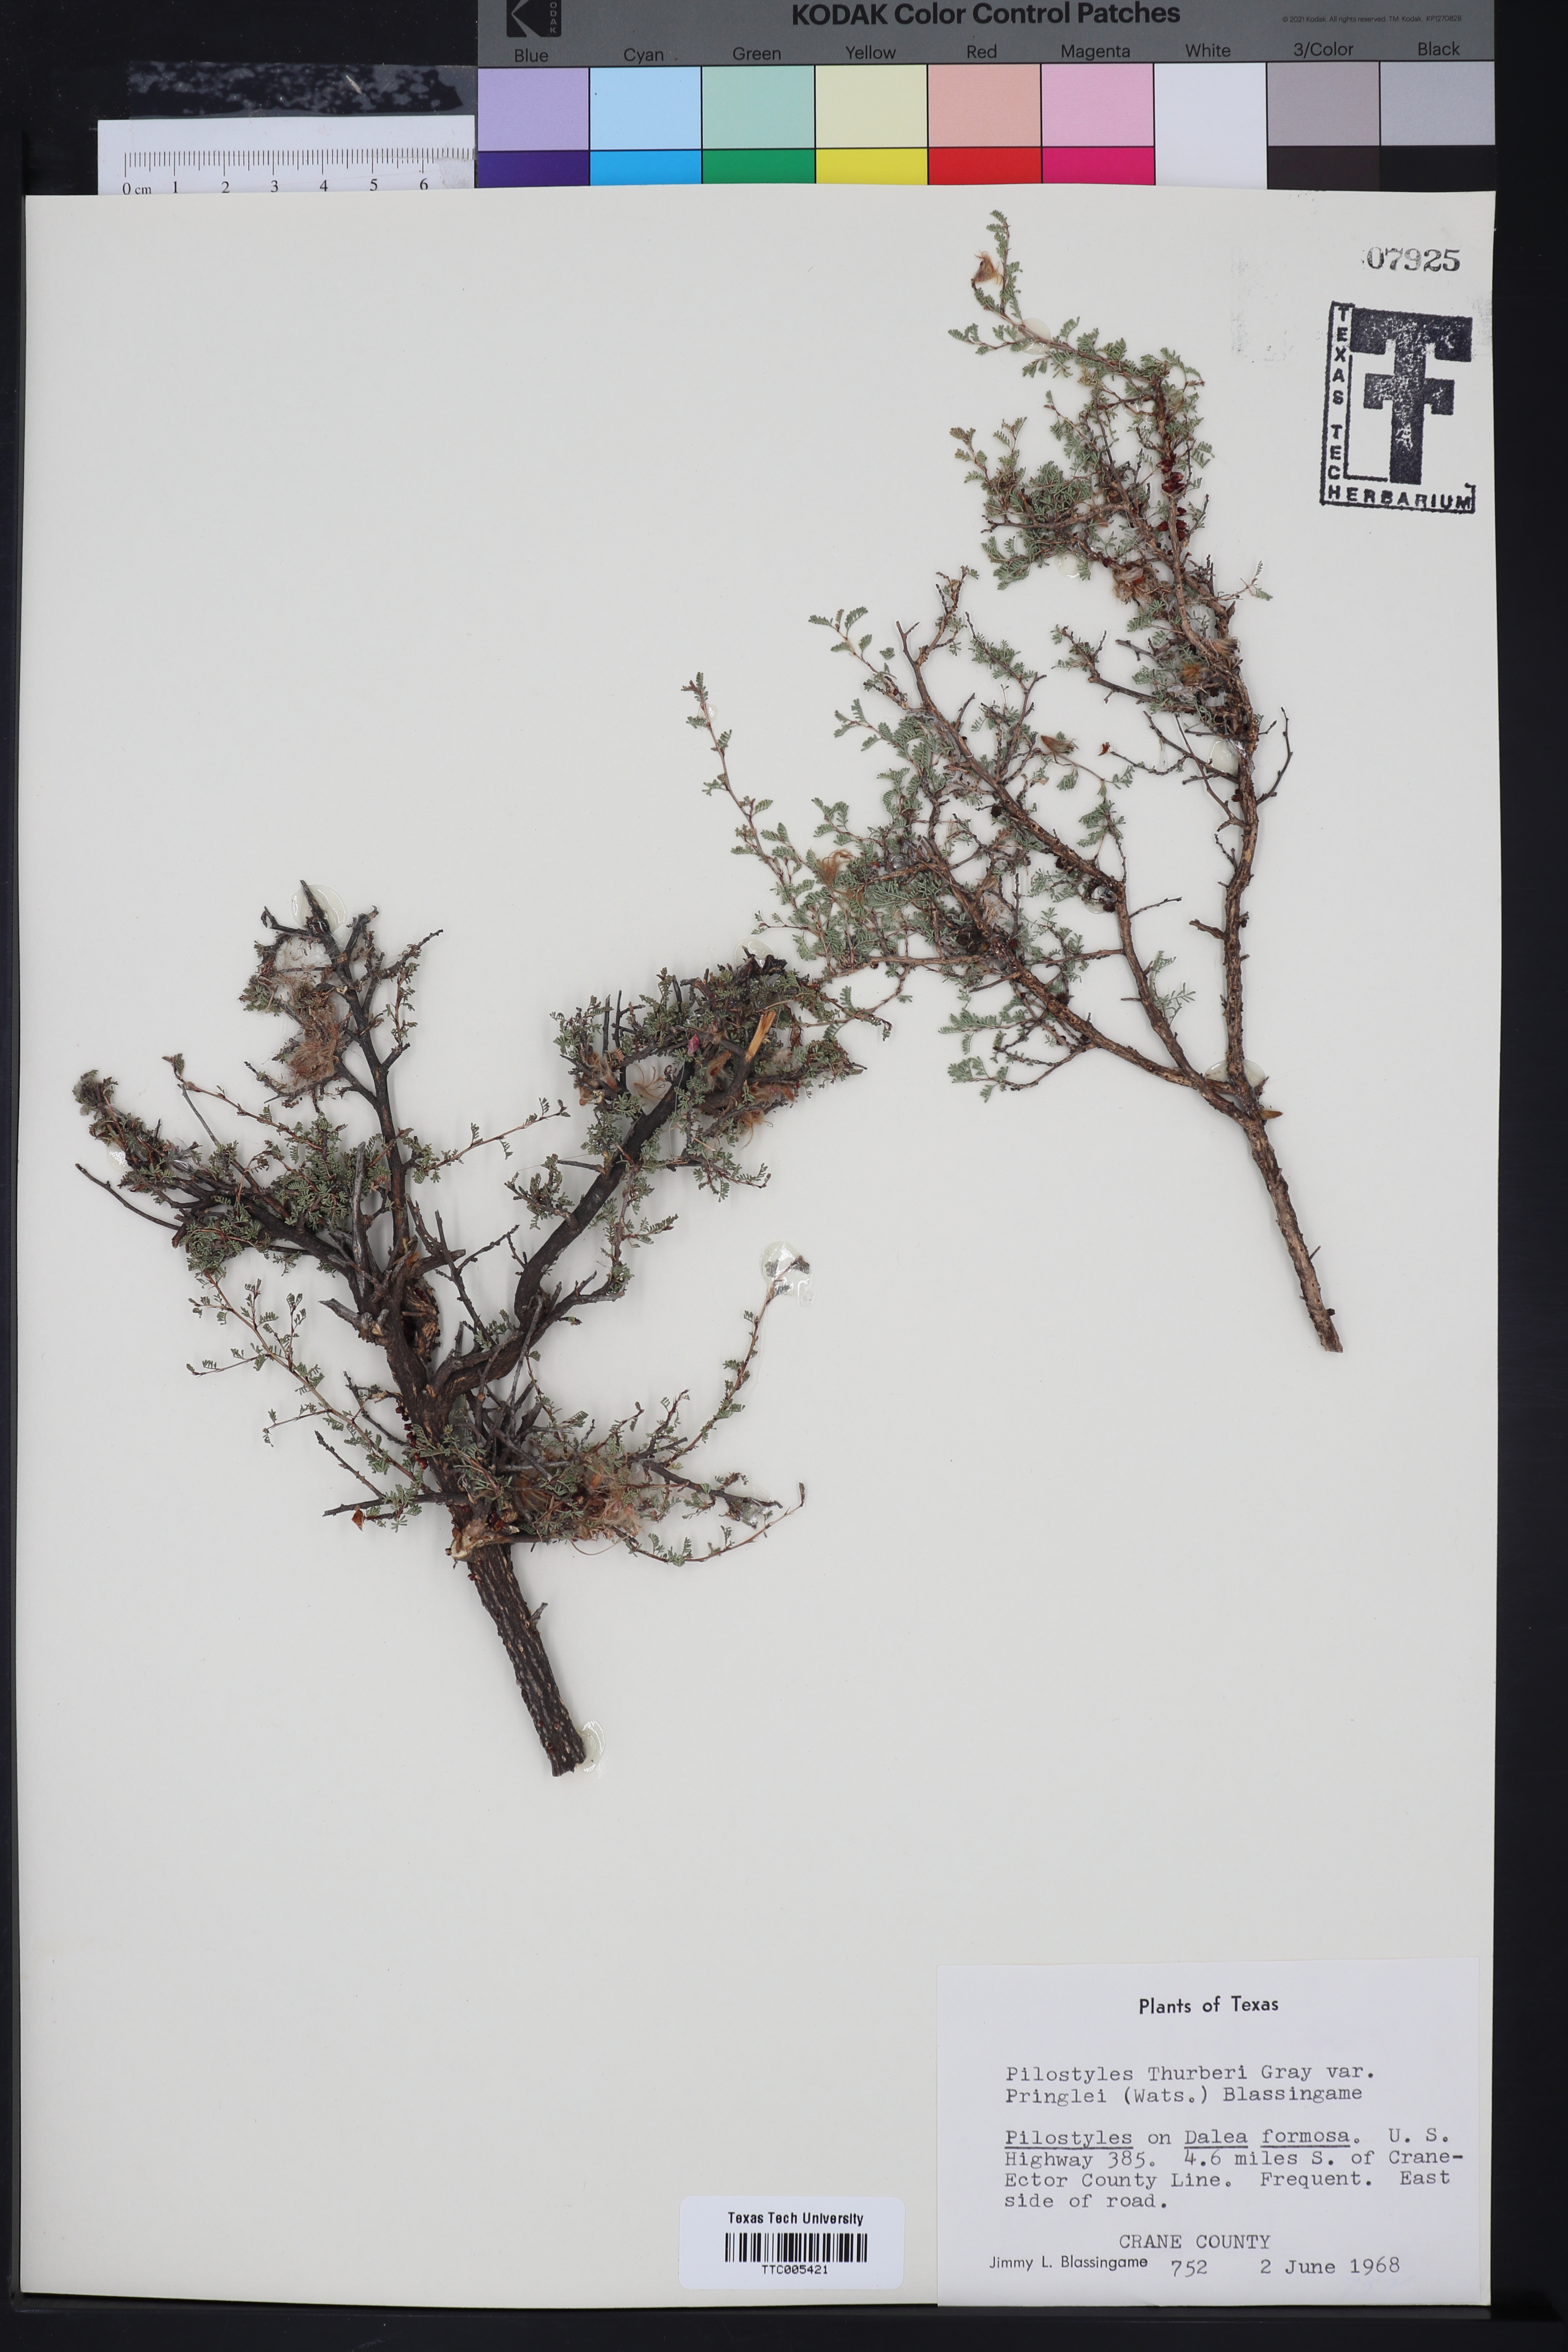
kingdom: Plantae
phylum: Tracheophyta
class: Magnoliopsida
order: Cucurbitales
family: Apodanthaceae
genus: Pilostyles
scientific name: Pilostyles thurberi
